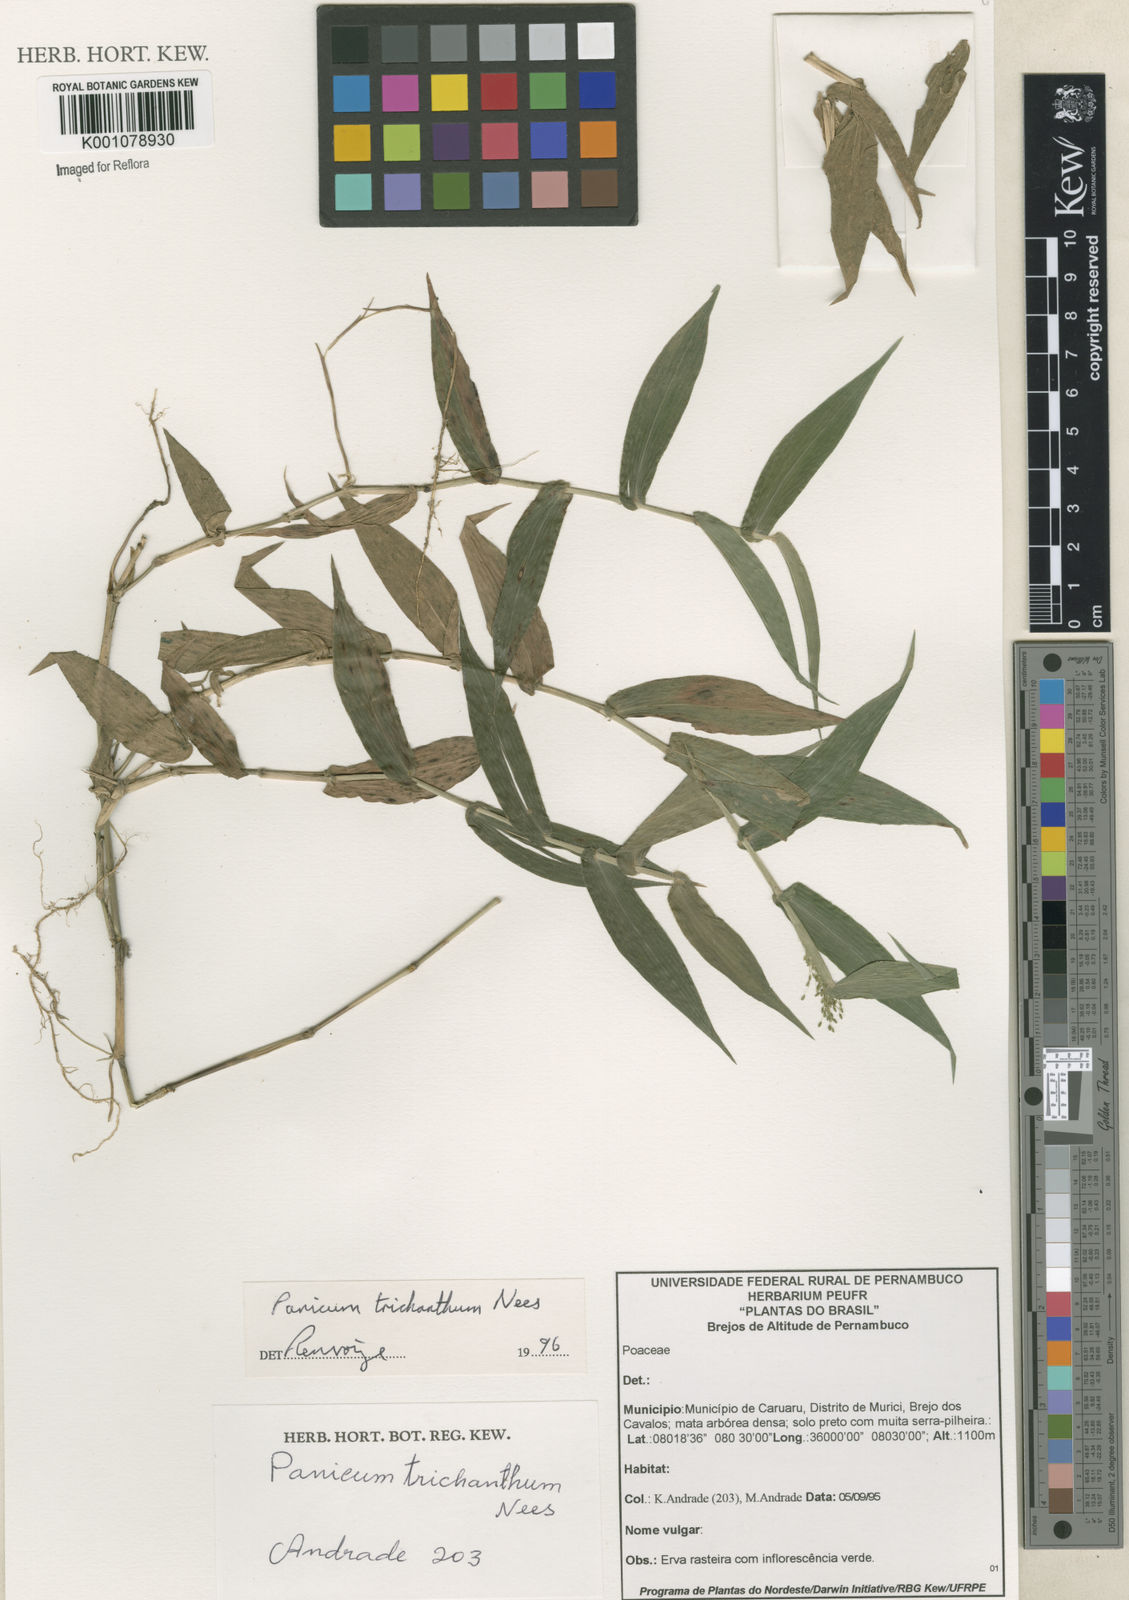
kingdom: Plantae
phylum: Tracheophyta
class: Liliopsida
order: Poales
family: Poaceae
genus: Panicum
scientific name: Panicum
